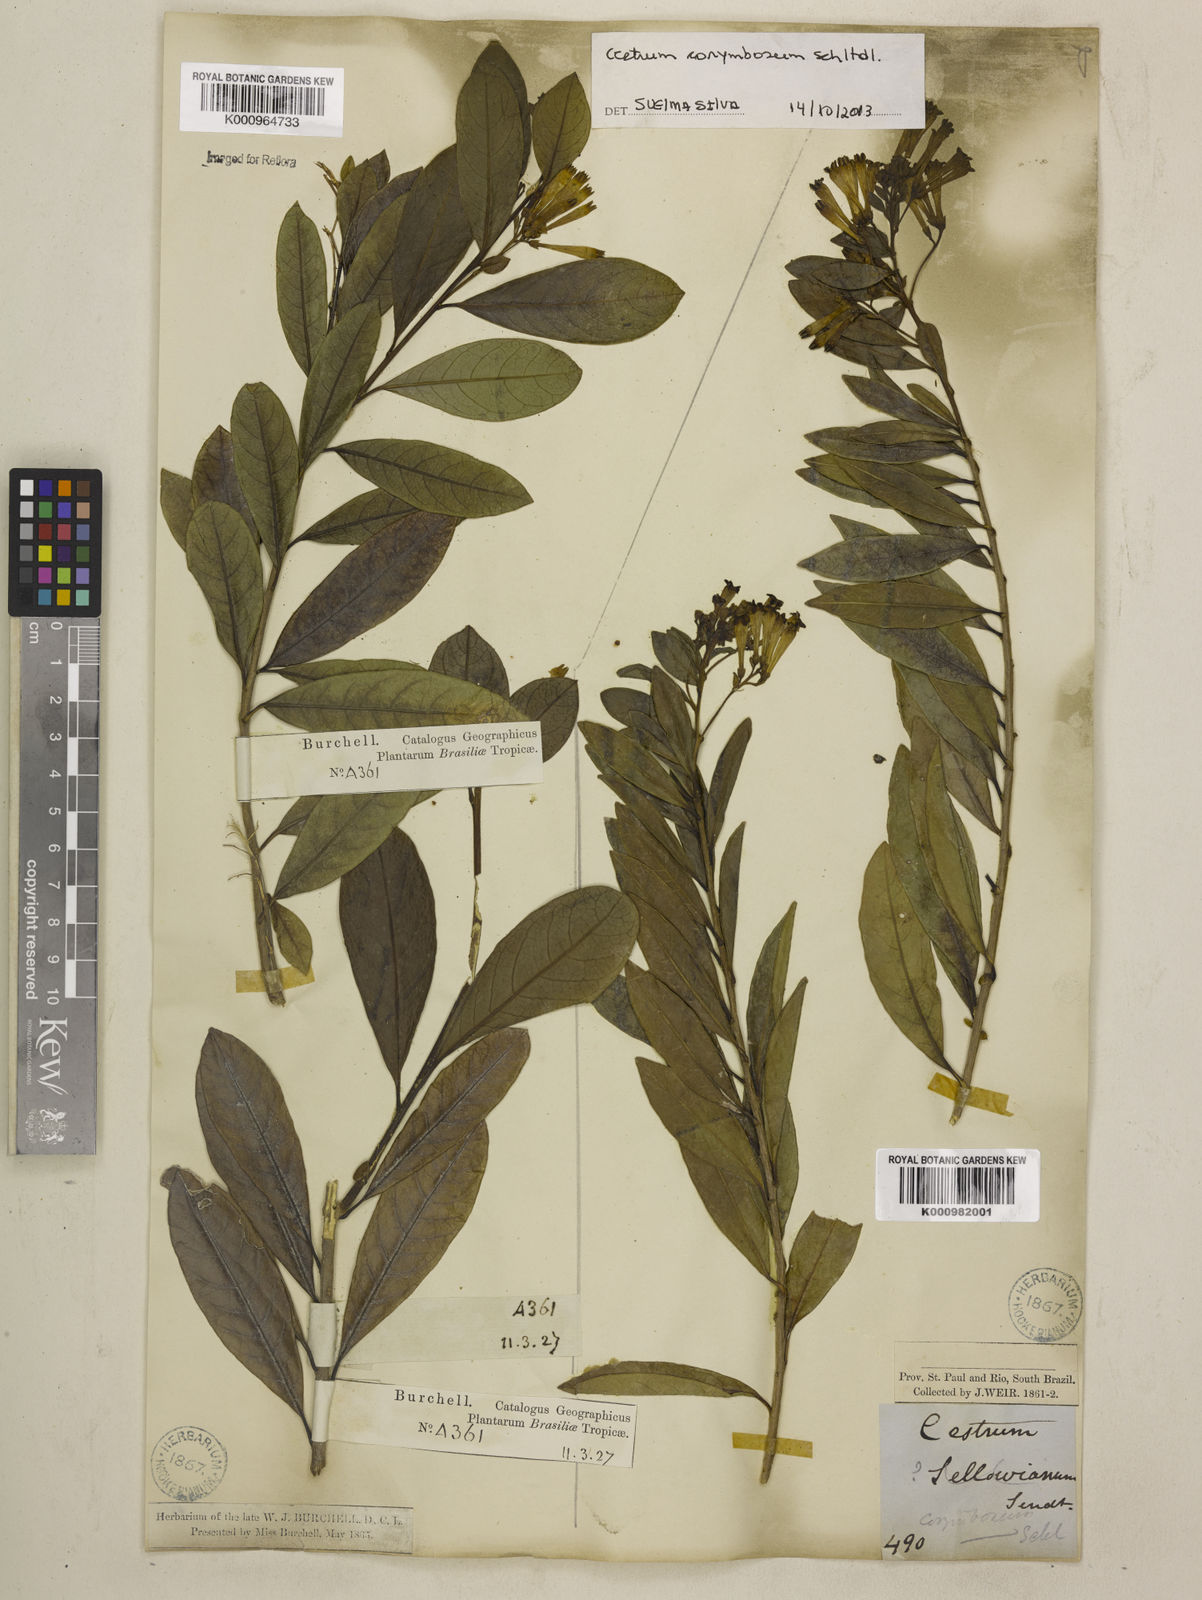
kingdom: Plantae
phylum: Tracheophyta
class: Magnoliopsida
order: Solanales
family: Solanaceae
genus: Cestrum
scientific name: Cestrum corymbosum
